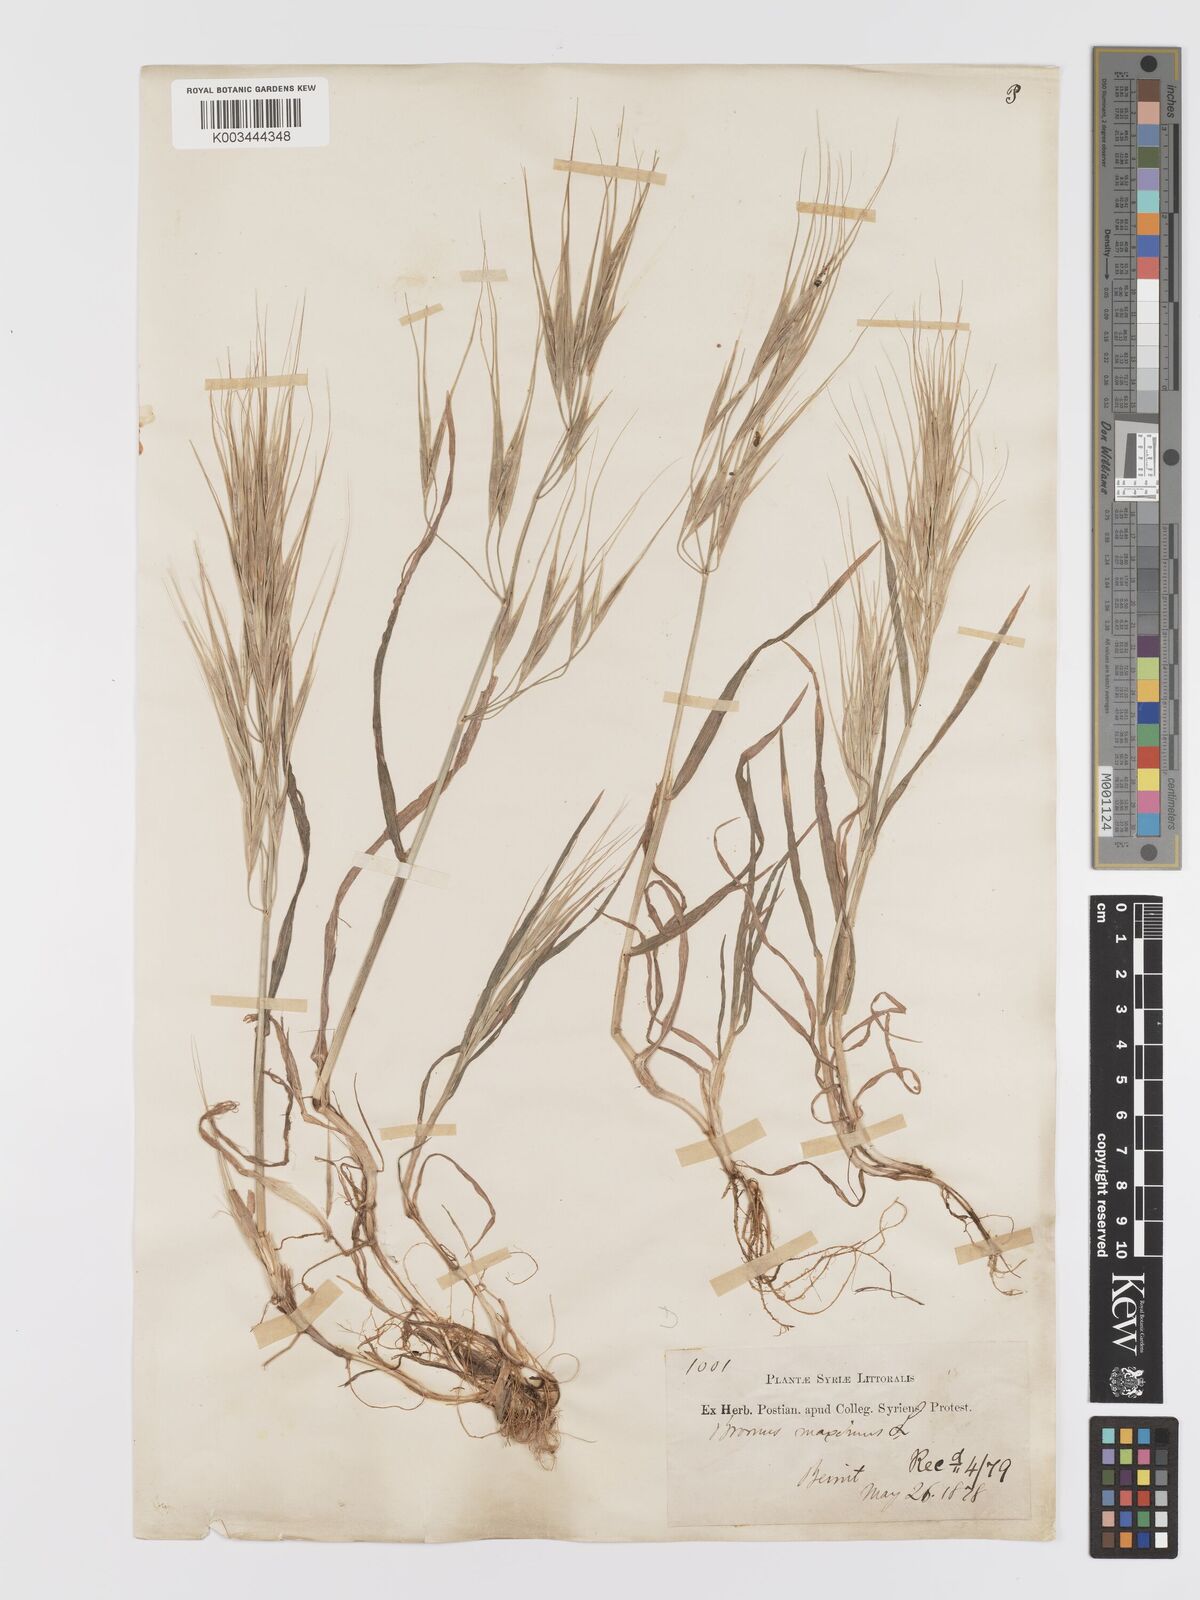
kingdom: Plantae
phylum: Tracheophyta
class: Liliopsida
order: Poales
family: Poaceae
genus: Bromus
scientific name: Bromus diandrus
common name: Ripgut brome
